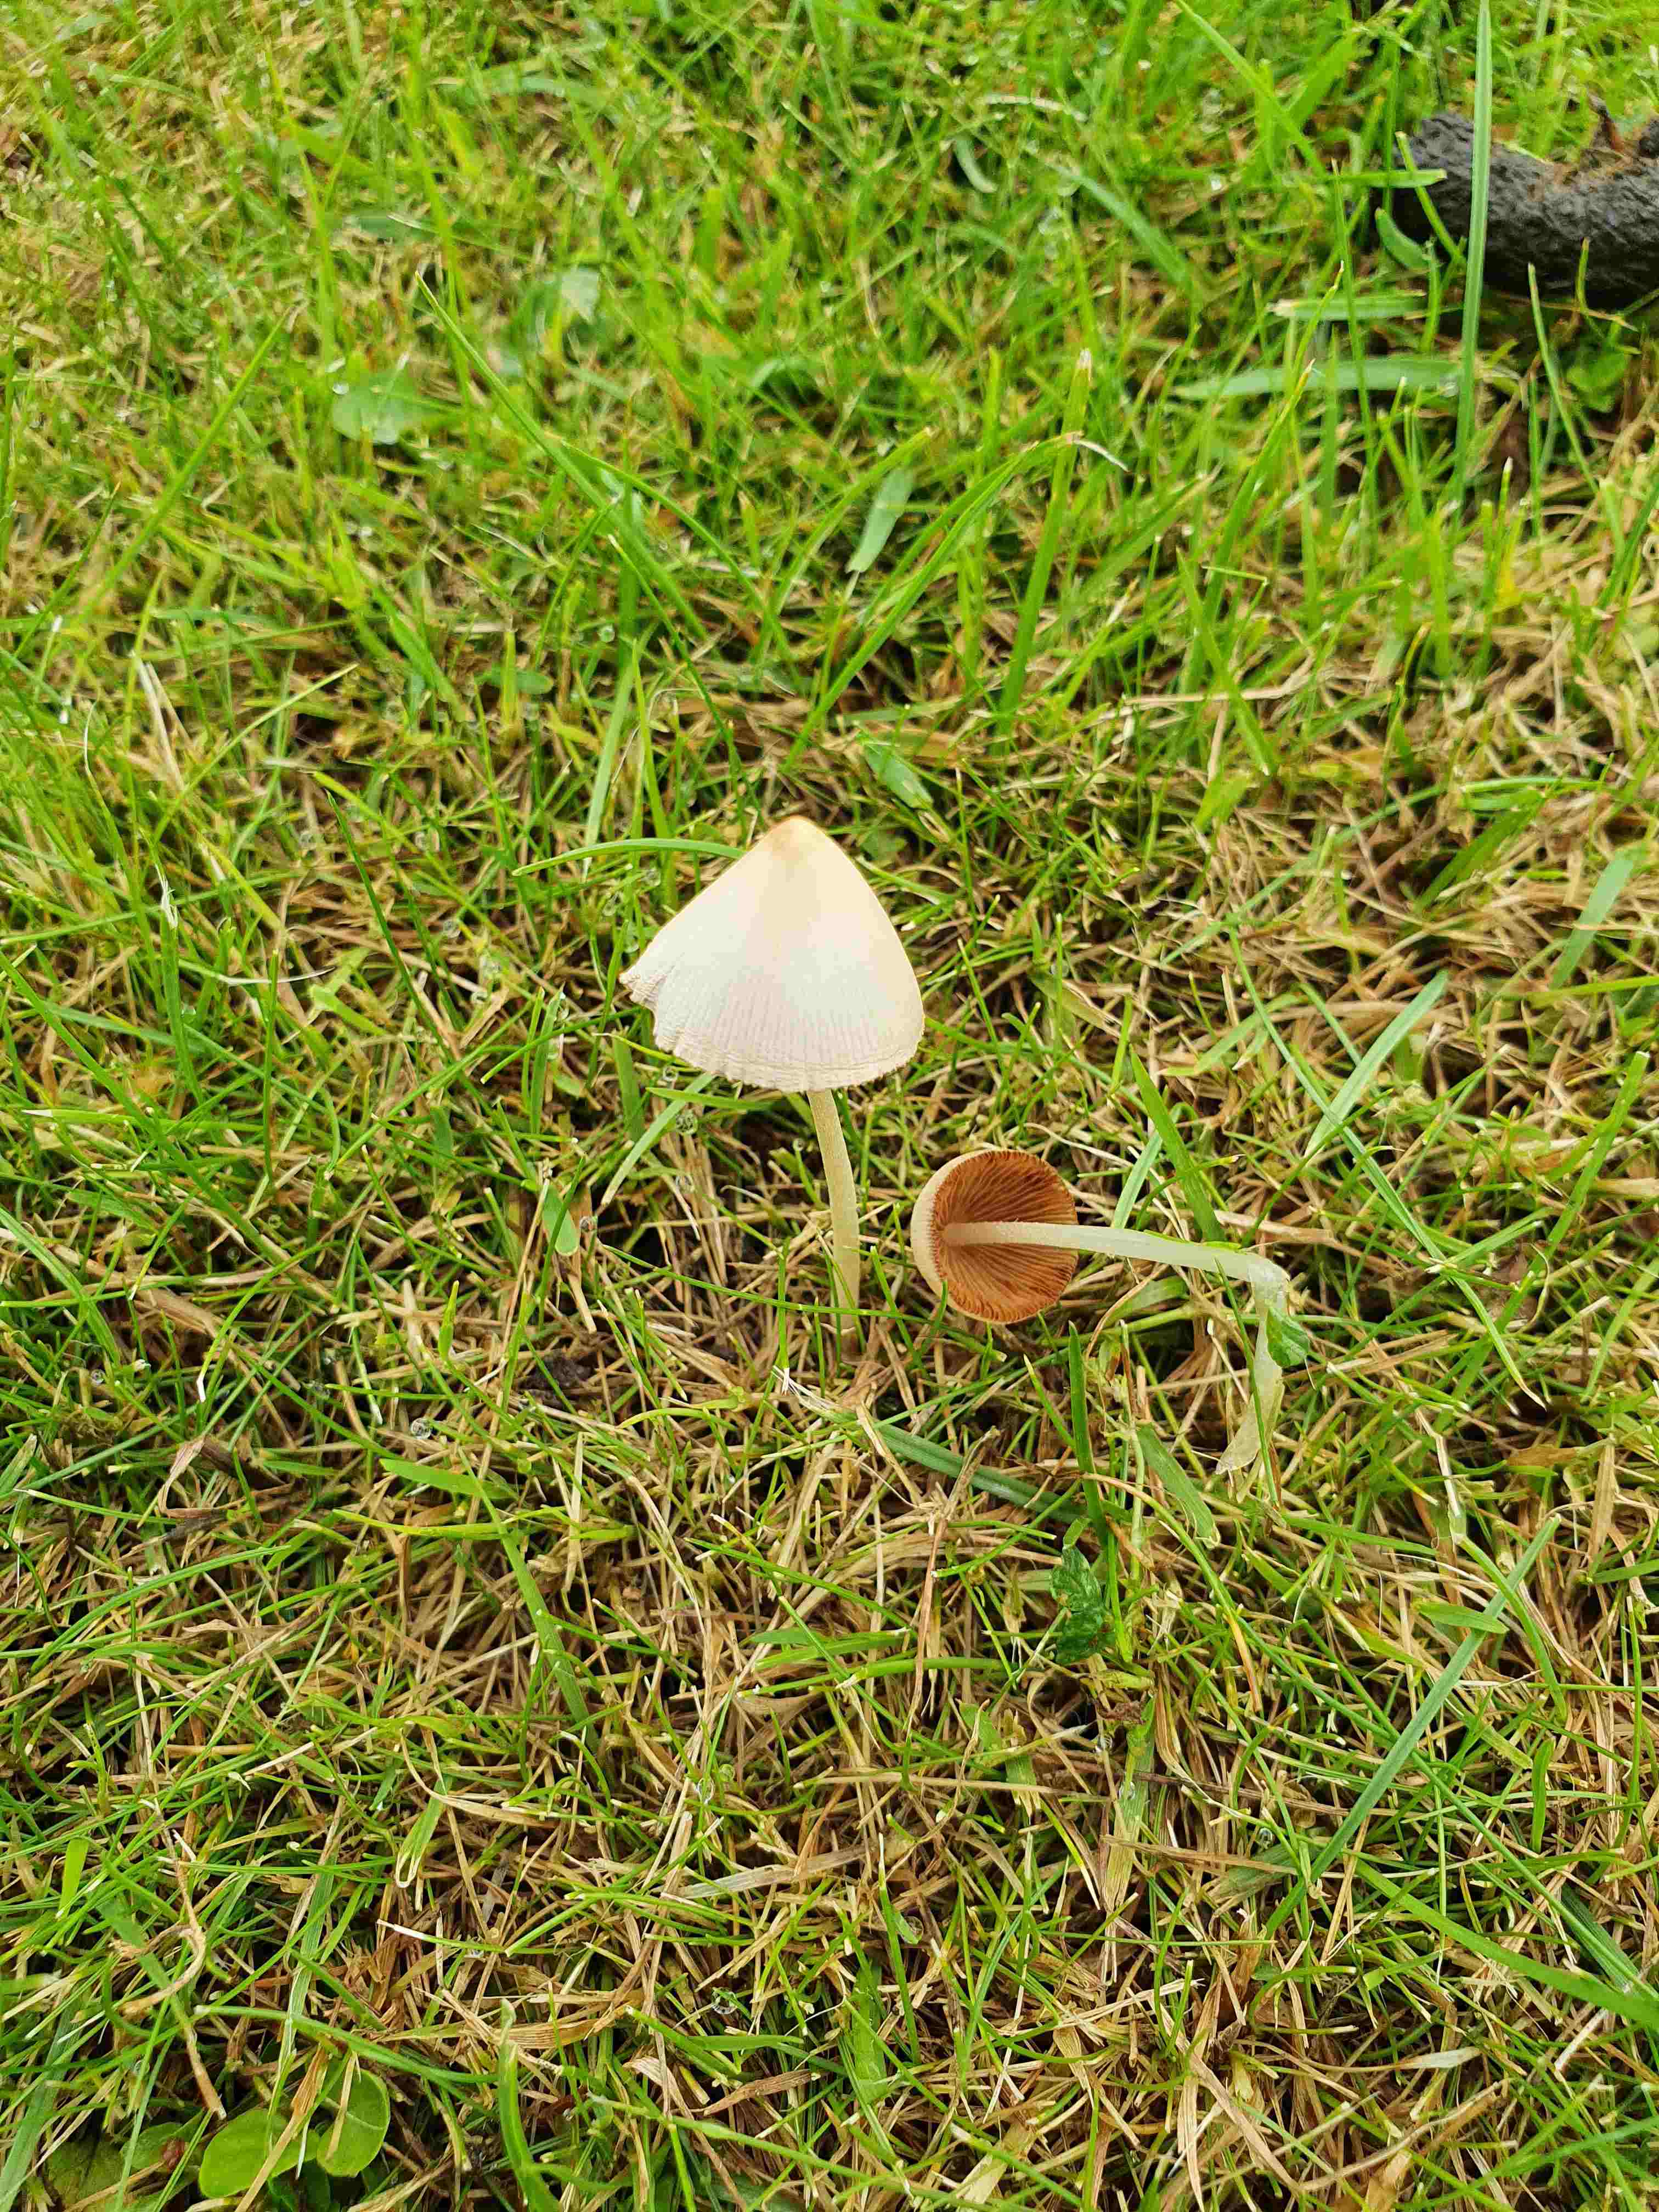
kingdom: Fungi
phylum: Basidiomycota
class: Agaricomycetes
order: Agaricales
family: Bolbitiaceae
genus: Conocybe
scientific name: Conocybe apala
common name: mælkehvid keglehat
